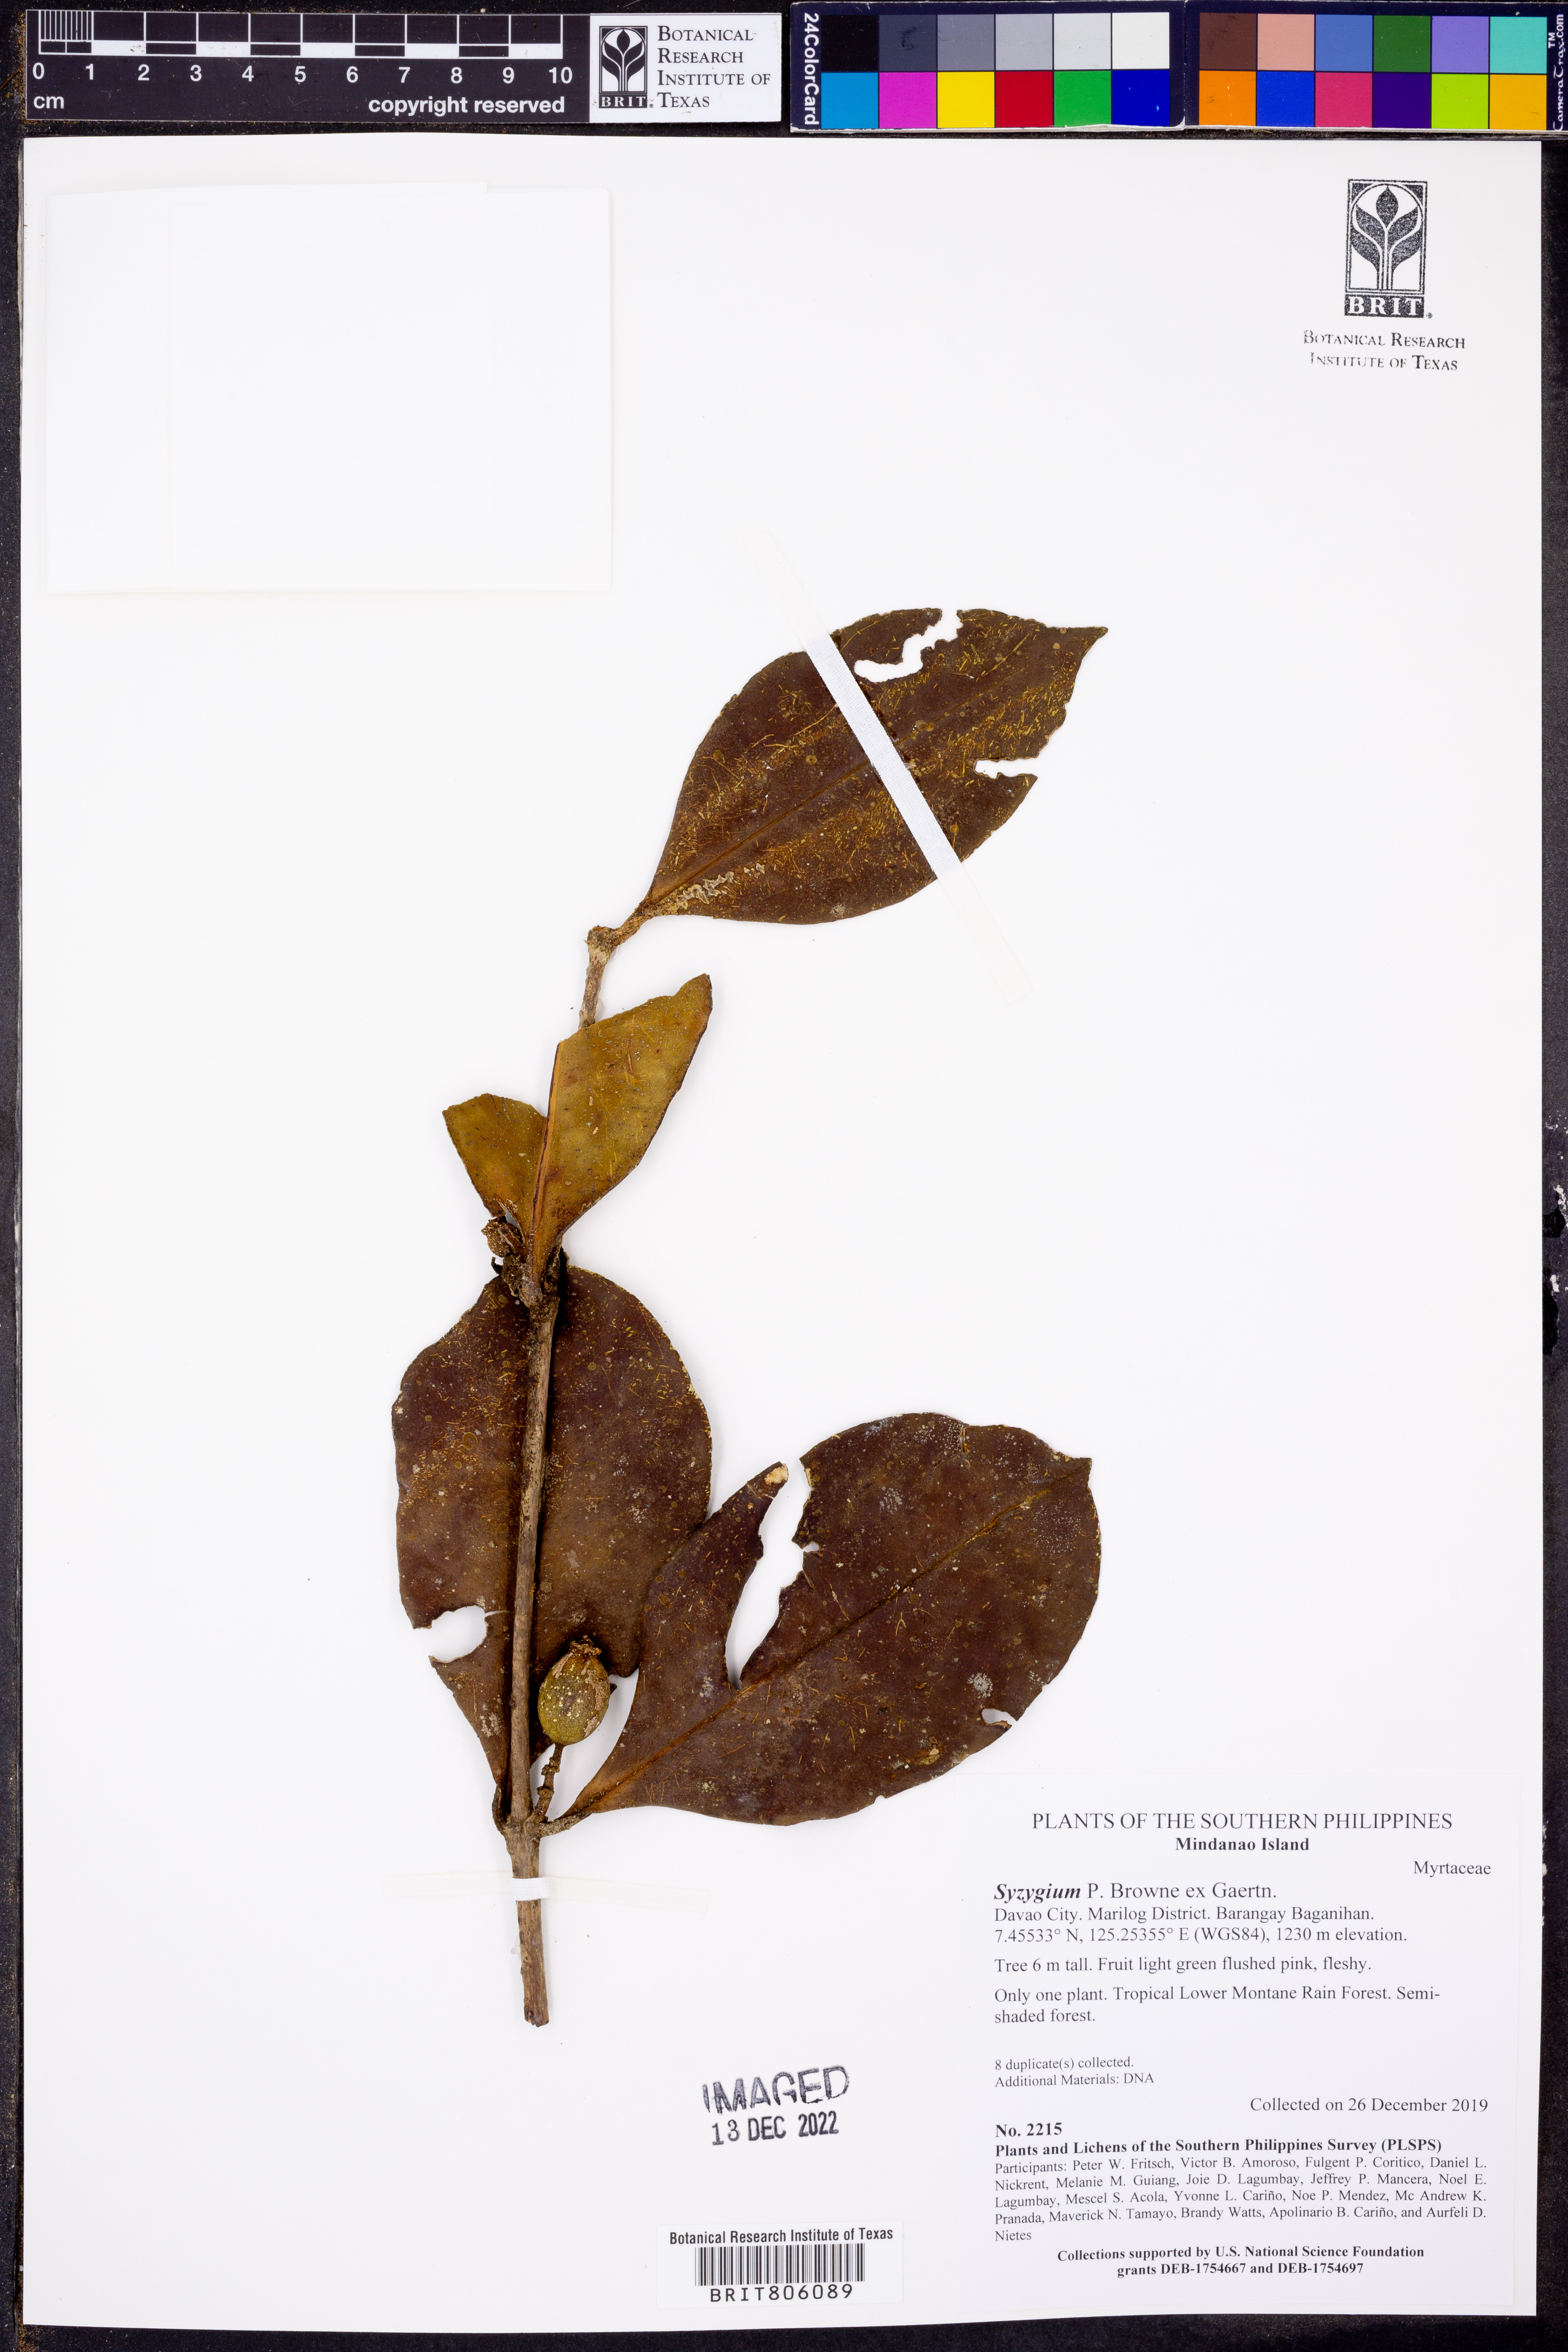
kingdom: Plantae
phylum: Tracheophyta
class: Magnoliopsida
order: Myrtales
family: Myrtaceae
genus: Syzygium
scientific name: Syzygium
